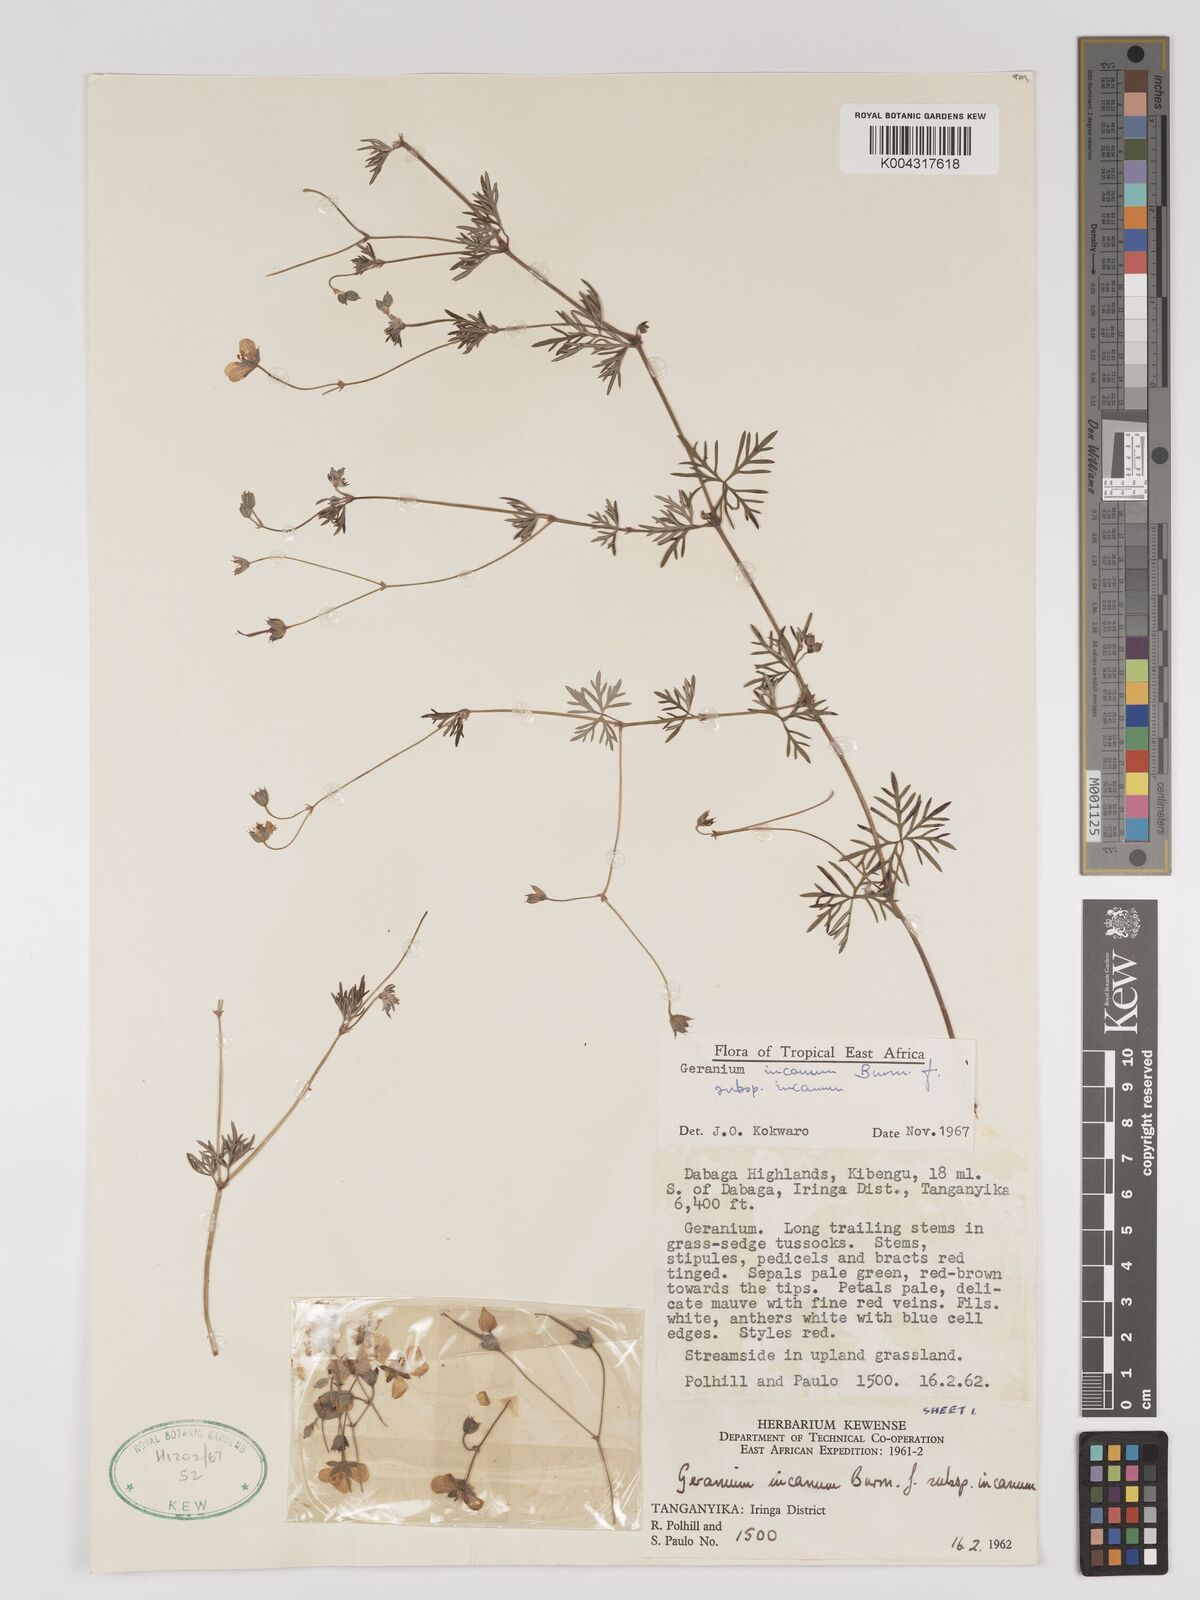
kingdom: Plantae
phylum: Tracheophyta
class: Magnoliopsida
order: Geraniales
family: Geraniaceae
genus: Geranium
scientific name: Geranium incanum
